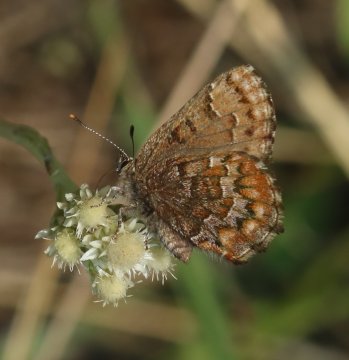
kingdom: Animalia
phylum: Arthropoda
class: Insecta
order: Lepidoptera
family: Lycaenidae
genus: Incisalia
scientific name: Incisalia niphon
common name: Eastern Pine Elfin
